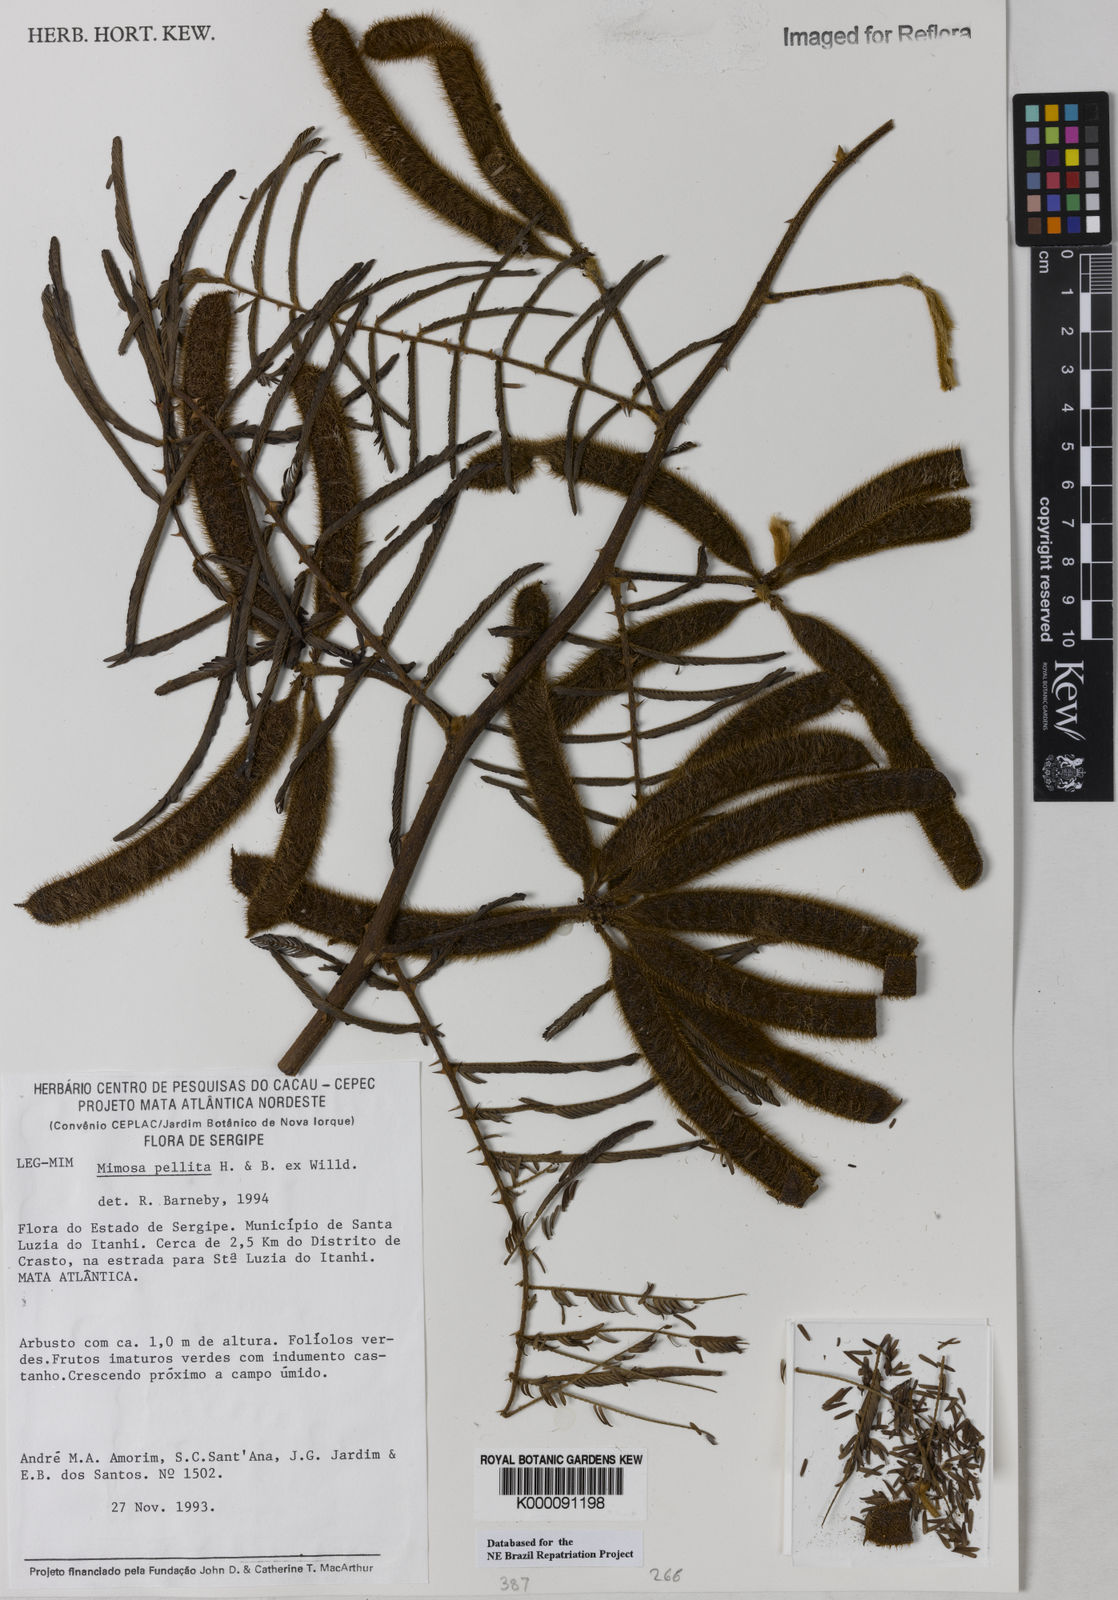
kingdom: Plantae
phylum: Tracheophyta
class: Magnoliopsida
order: Fabales
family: Fabaceae
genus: Mimosa
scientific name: Mimosa pigra
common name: Black mimosa
